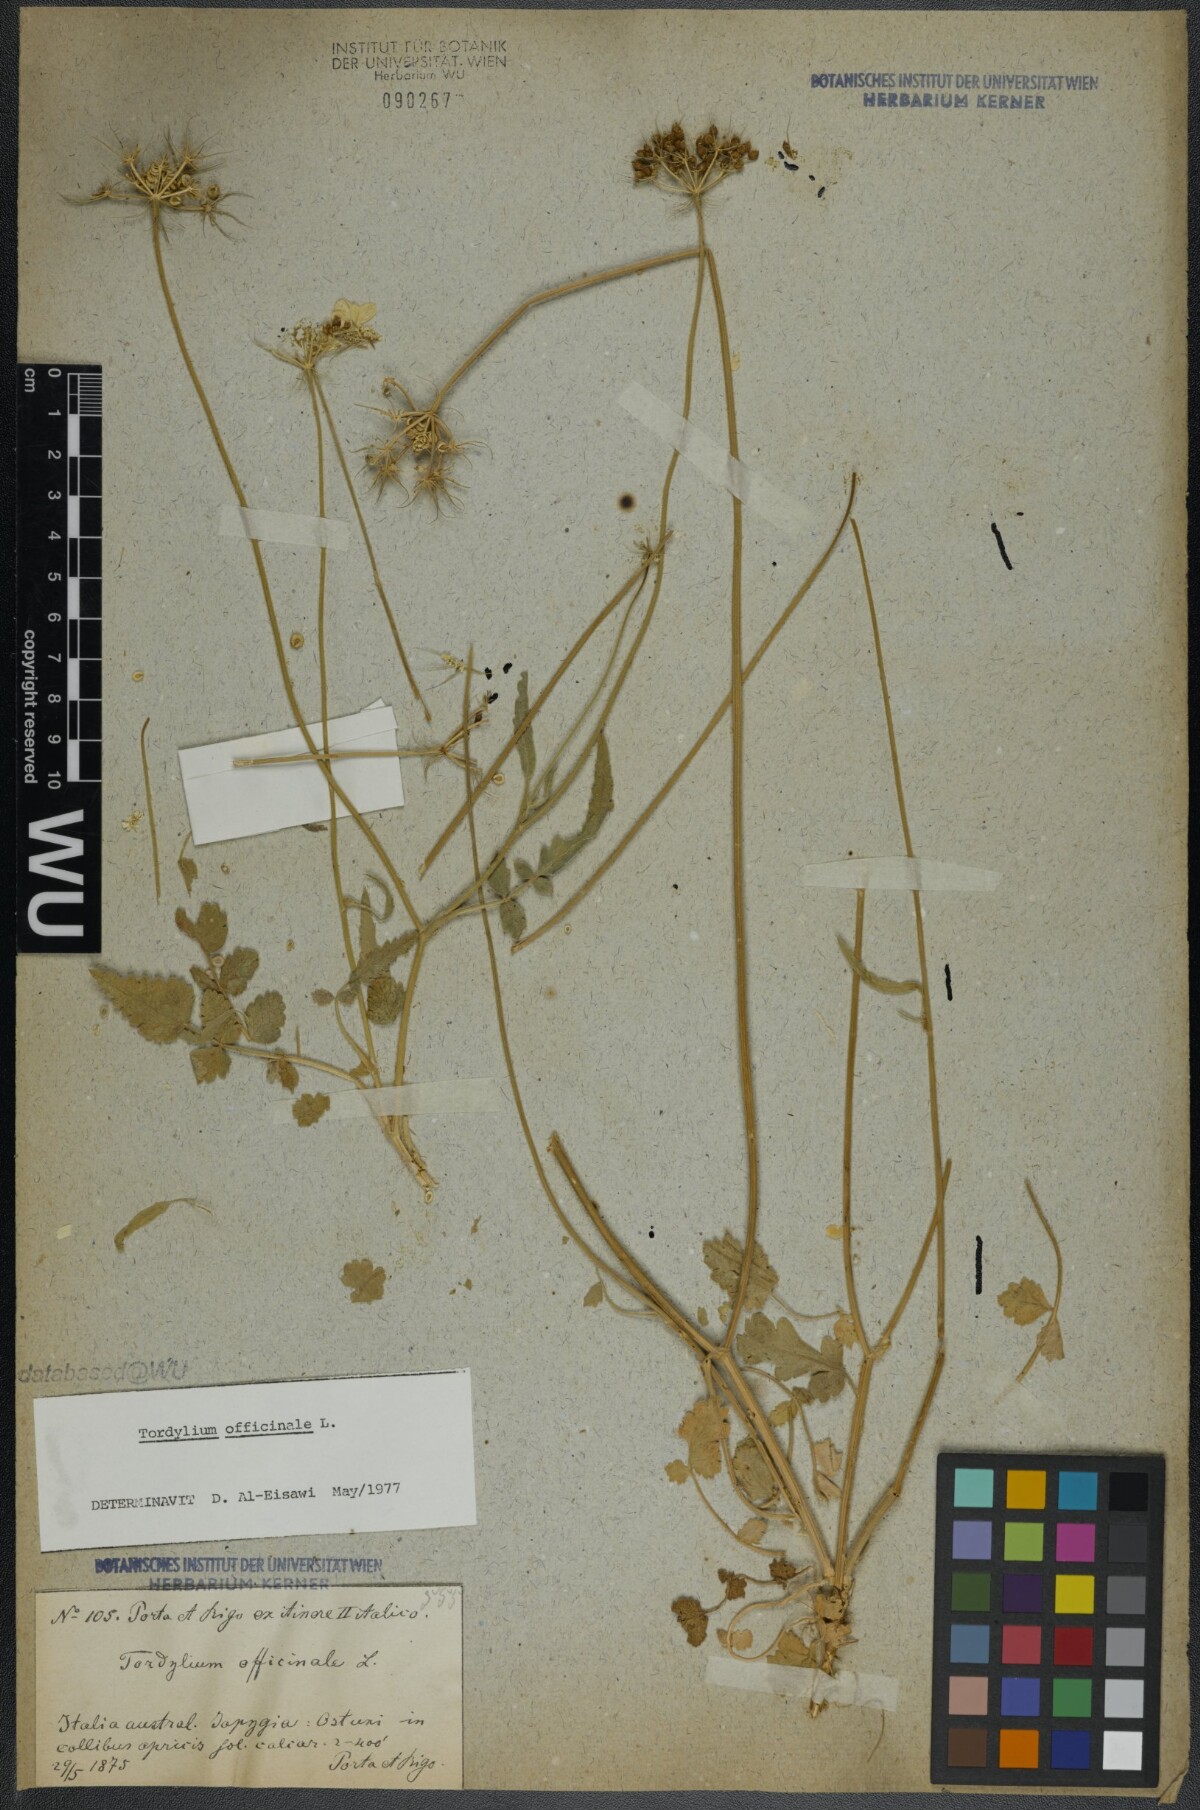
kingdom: Plantae
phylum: Tracheophyta
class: Magnoliopsida
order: Apiales
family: Apiaceae
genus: Tordylium
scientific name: Tordylium officinale
